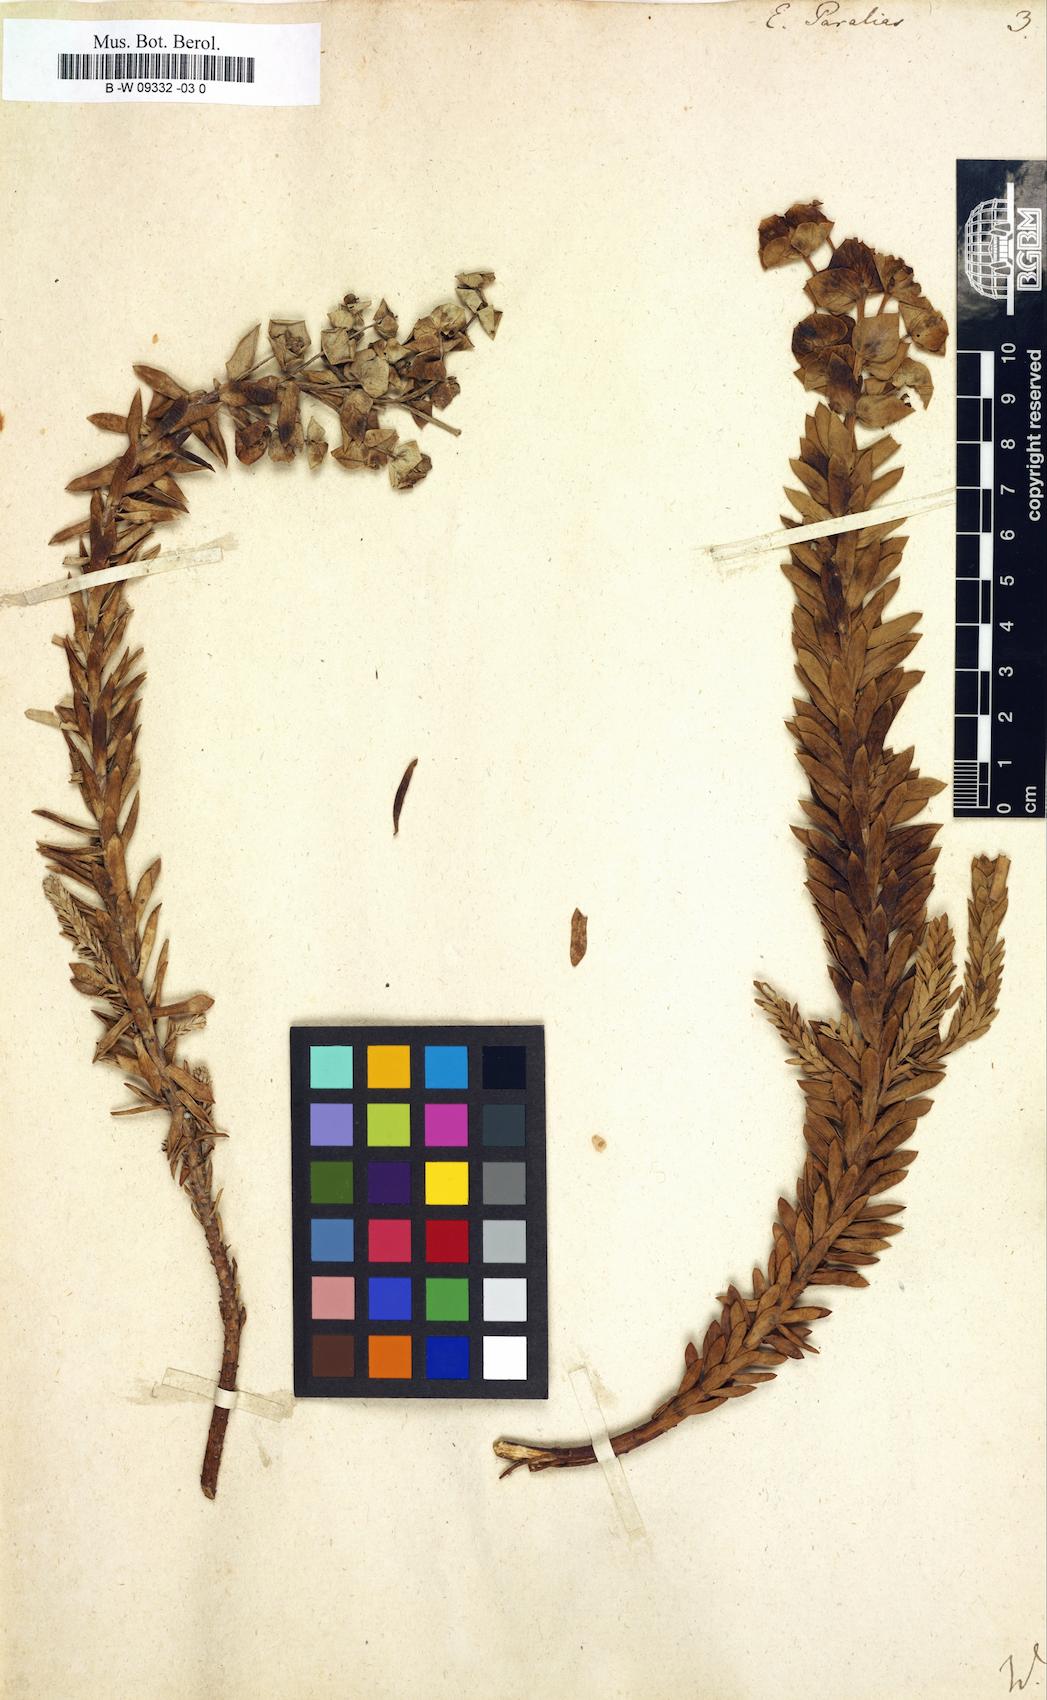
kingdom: Plantae
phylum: Tracheophyta
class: Magnoliopsida
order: Malpighiales
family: Euphorbiaceae
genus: Euphorbia
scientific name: Euphorbia paralias
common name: Sea spurge
